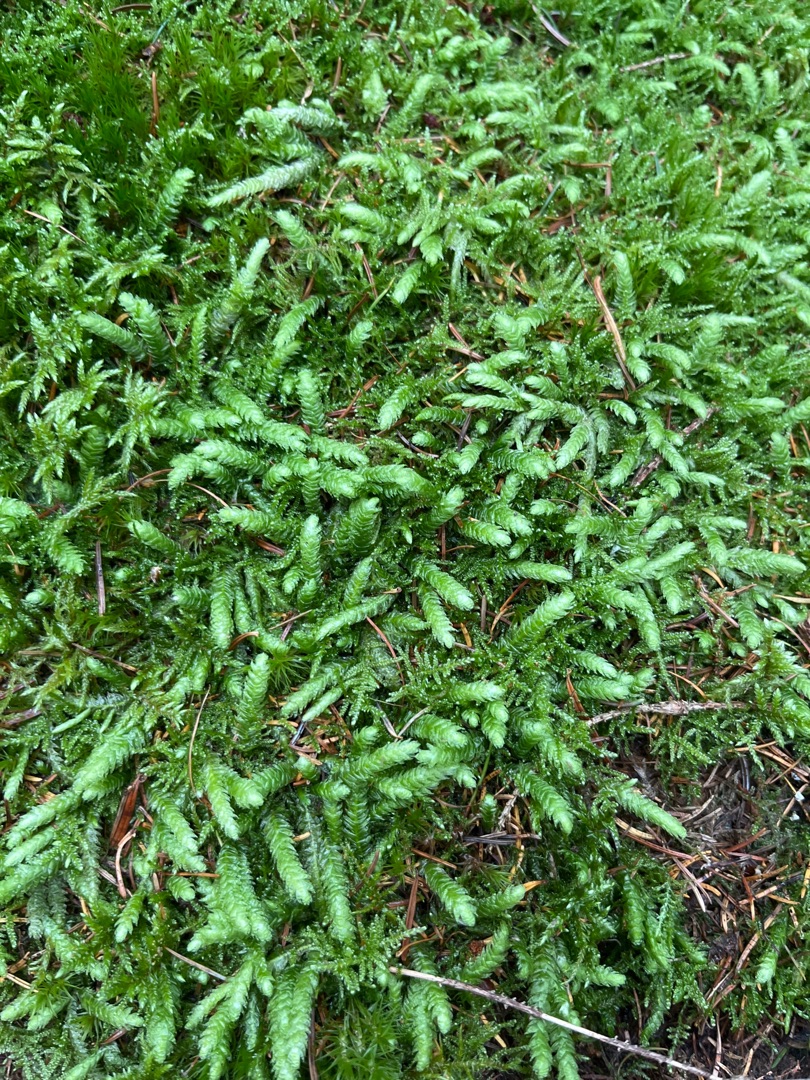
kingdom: Plantae
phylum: Bryophyta
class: Bryopsida
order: Hypnales
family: Plagiotheciaceae
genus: Plagiothecium
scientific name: Plagiothecium undulatum
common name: Bølget tæppemos
